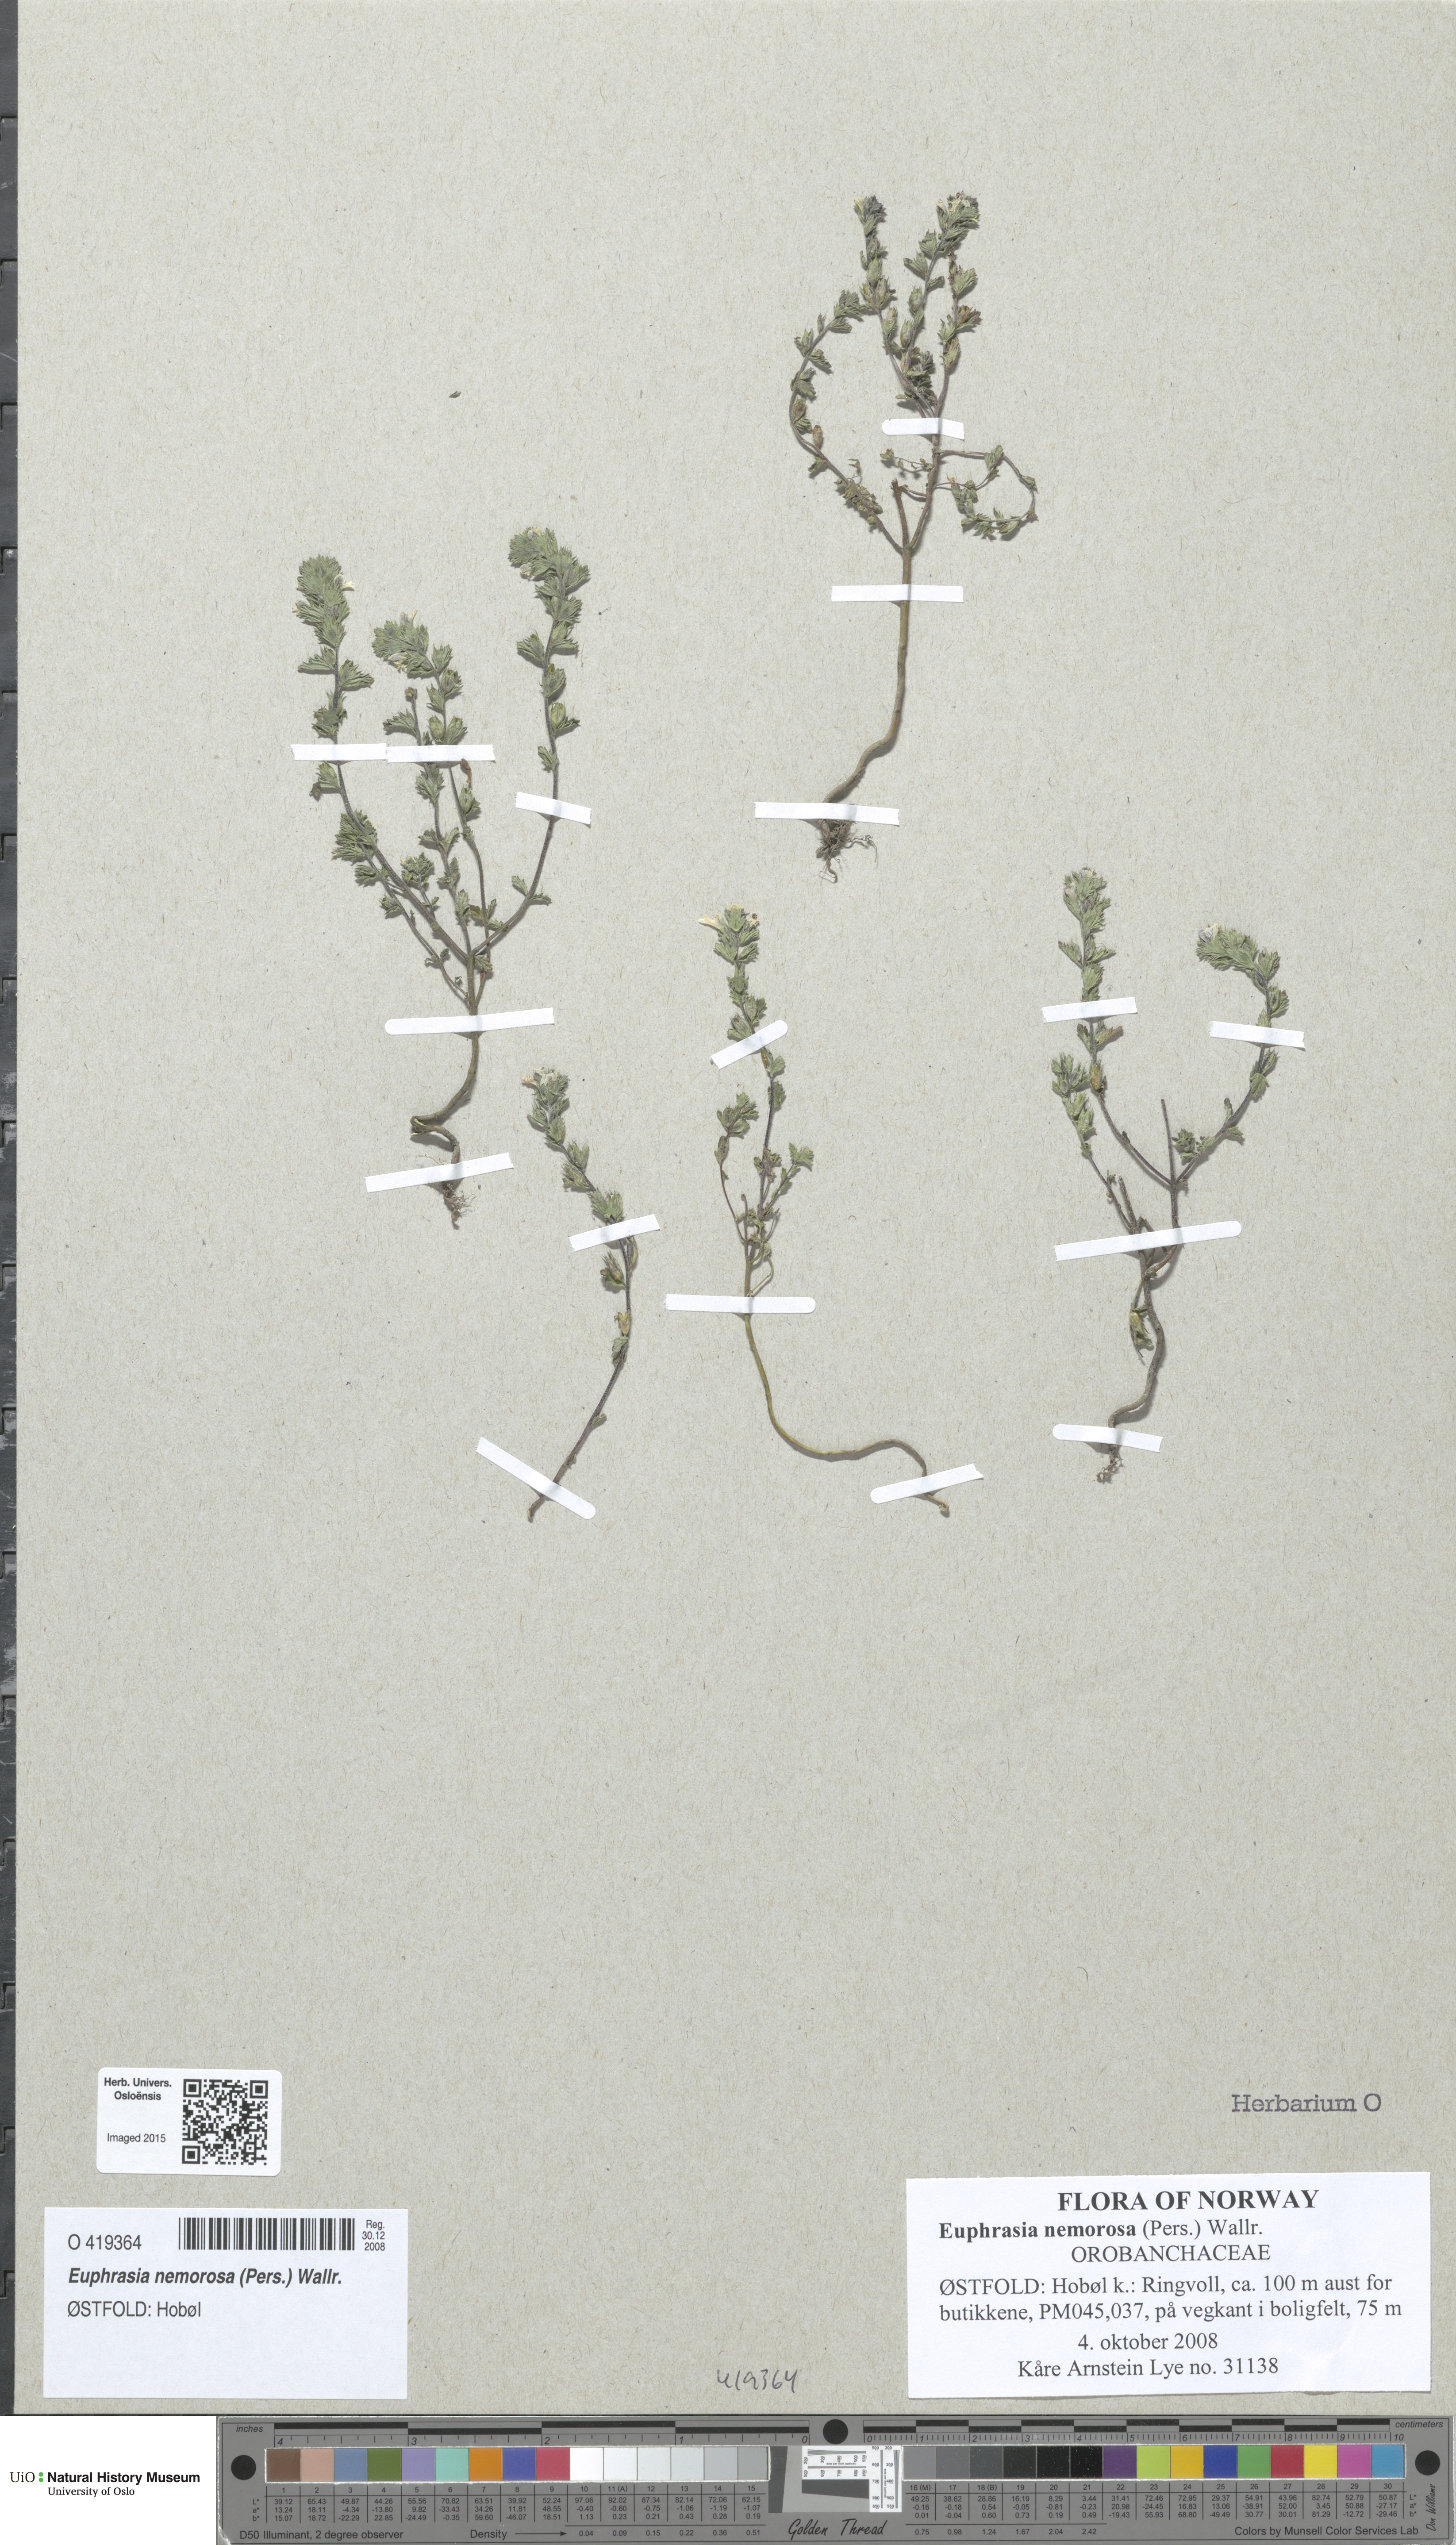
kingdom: Plantae
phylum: Tracheophyta
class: Magnoliopsida
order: Lamiales
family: Orobanchaceae
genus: Euphrasia
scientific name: Euphrasia nemorosa
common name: Common eyebright
